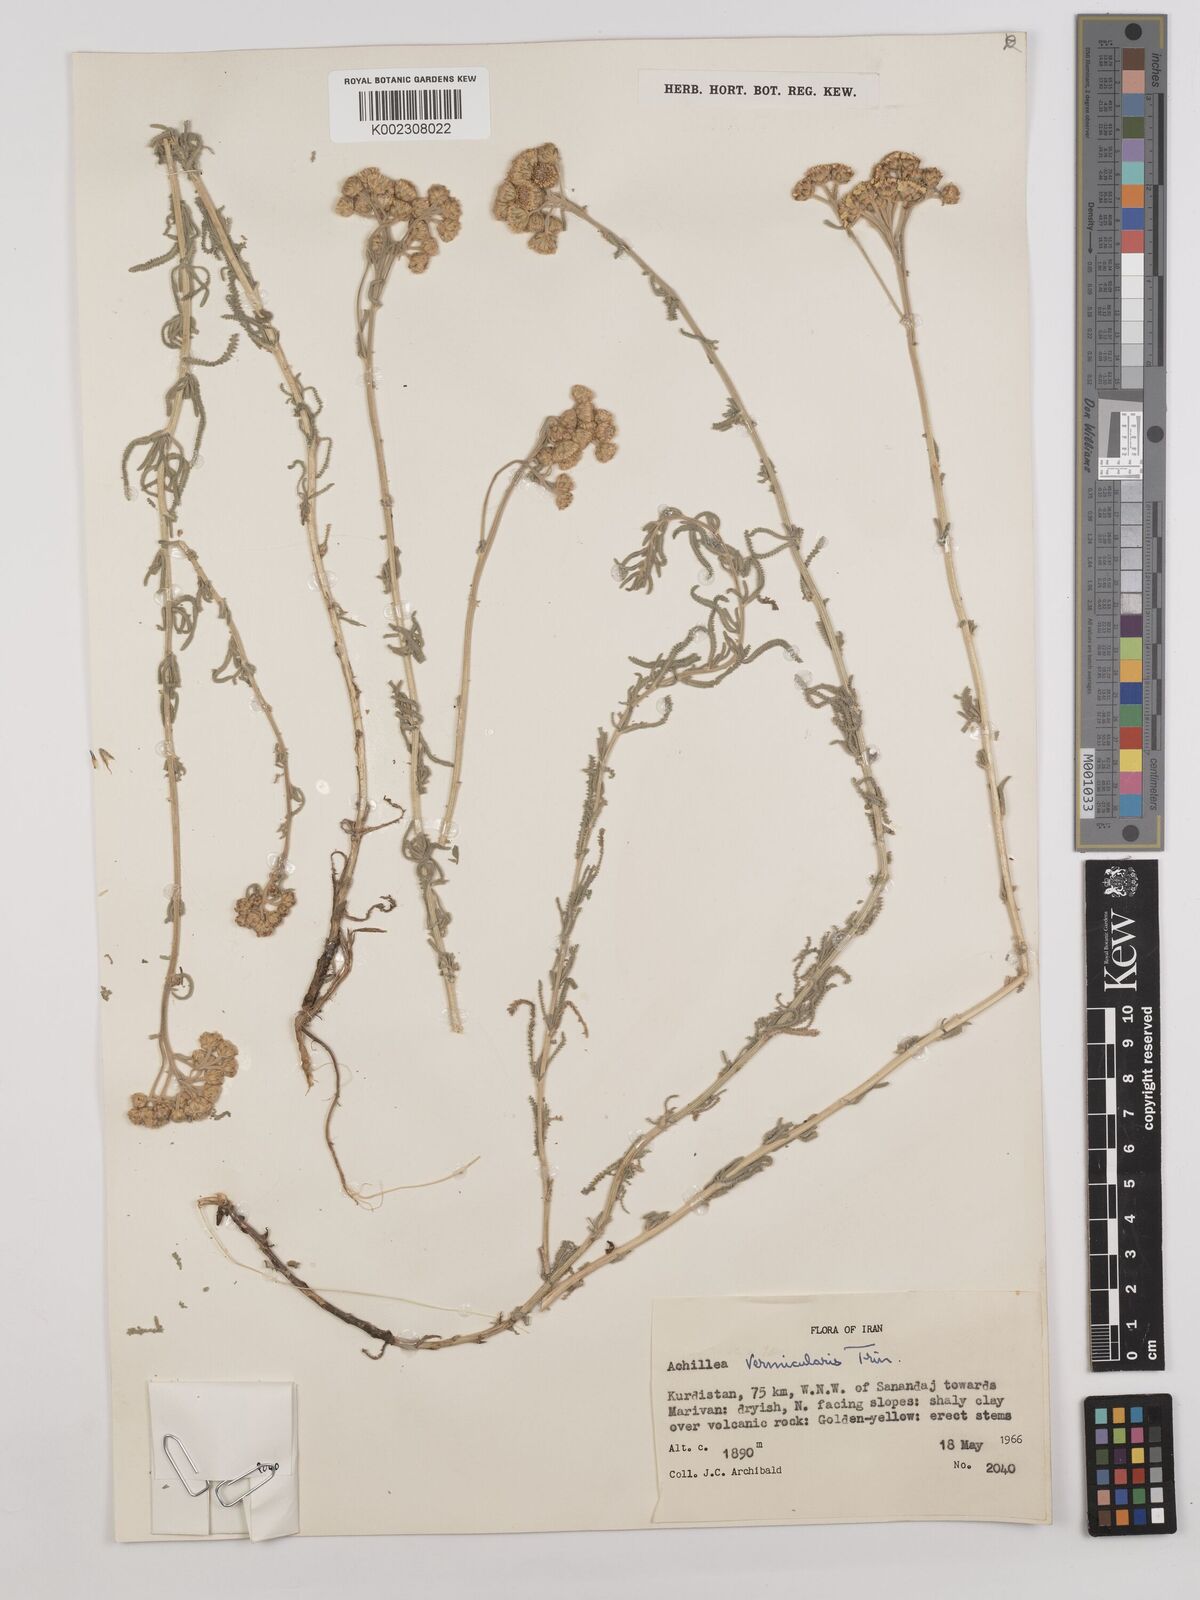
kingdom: Plantae
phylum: Tracheophyta
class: Magnoliopsida
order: Asterales
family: Asteraceae
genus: Achillea
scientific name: Achillea vermicularis
